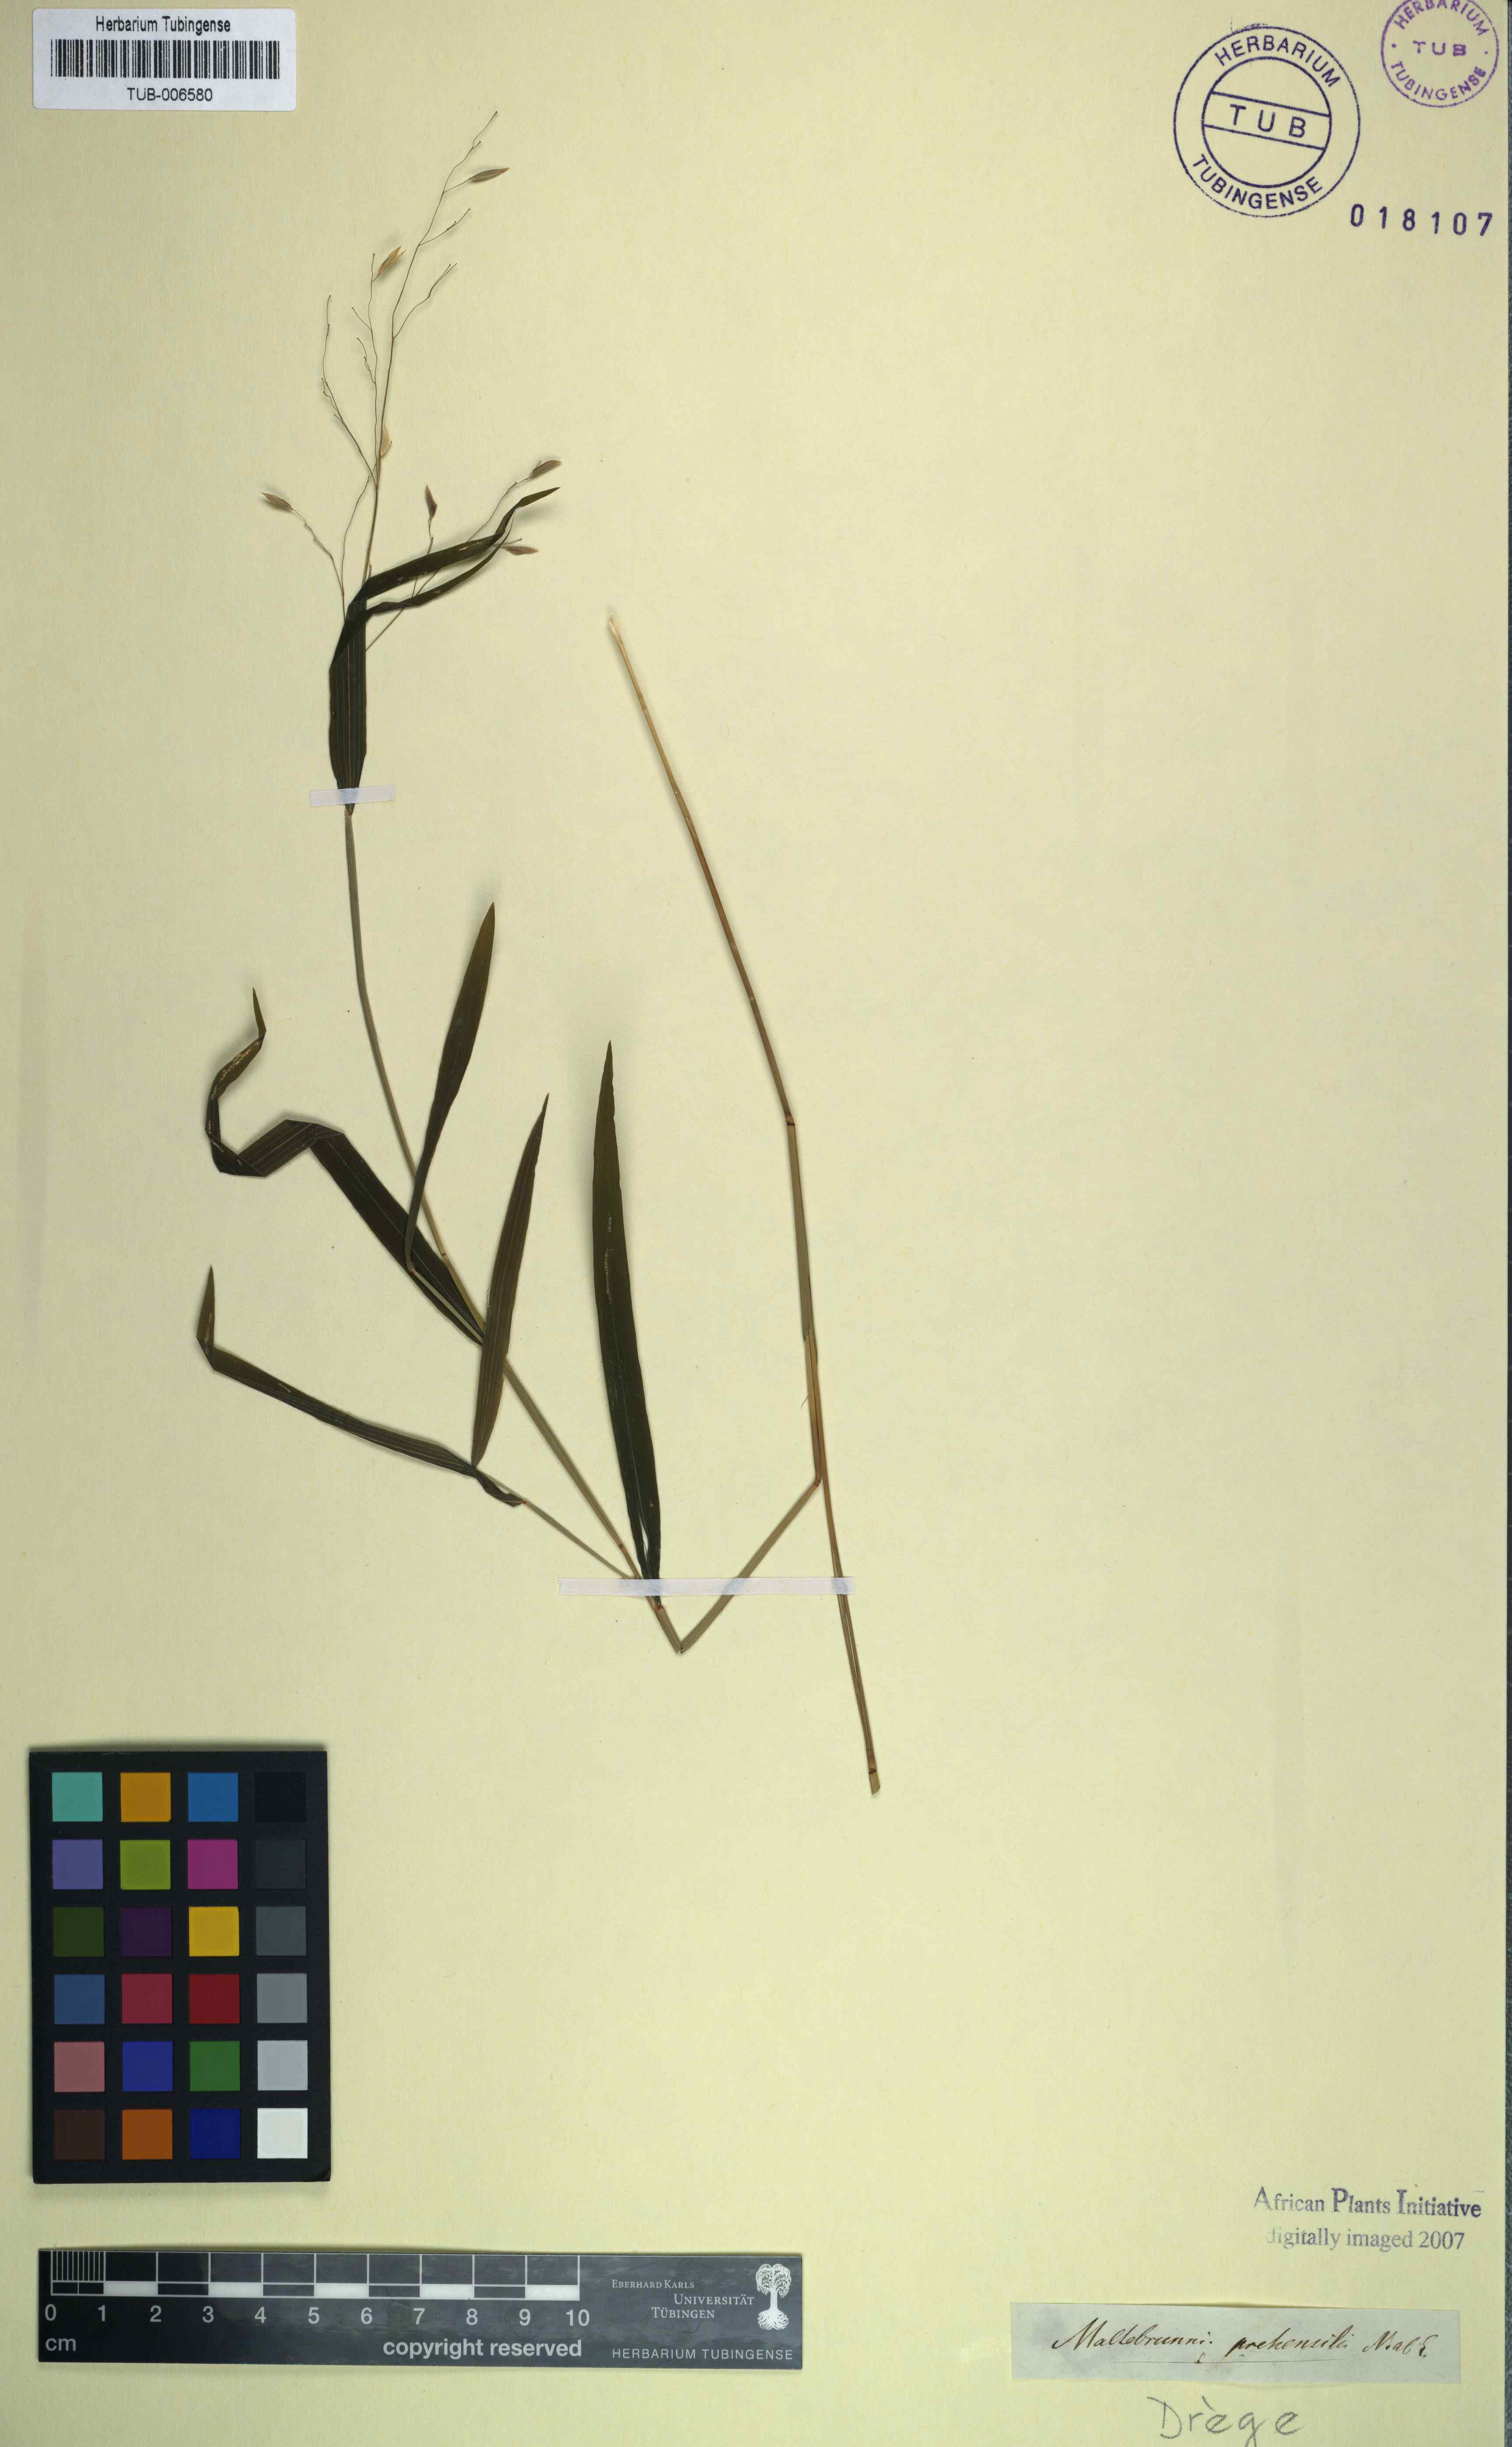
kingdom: Plantae
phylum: Tracheophyta
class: Liliopsida
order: Poales
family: Poaceae
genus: Prosphytochloa
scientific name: Prosphytochloa prehensilis
